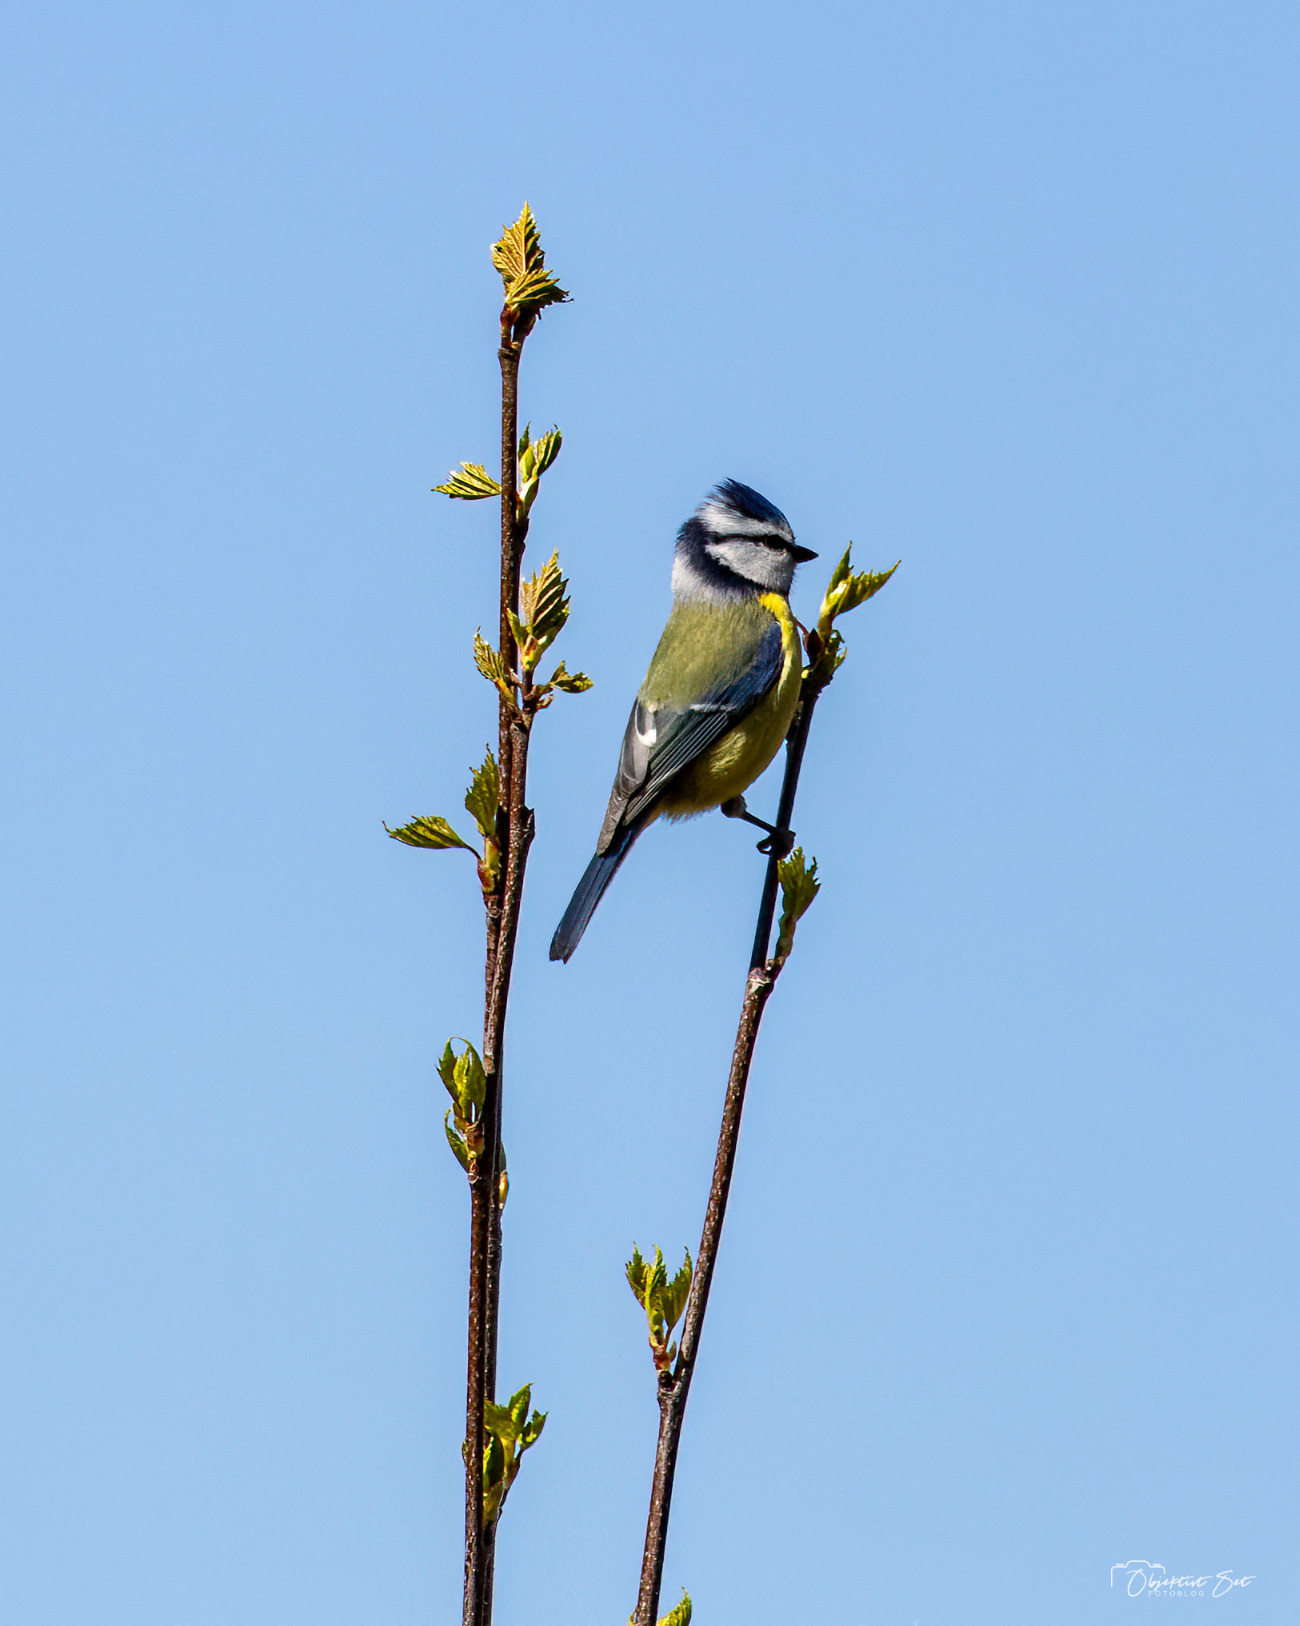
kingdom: Animalia
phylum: Chordata
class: Aves
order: Passeriformes
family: Paridae
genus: Cyanistes
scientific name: Cyanistes caeruleus
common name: Blåmejse
